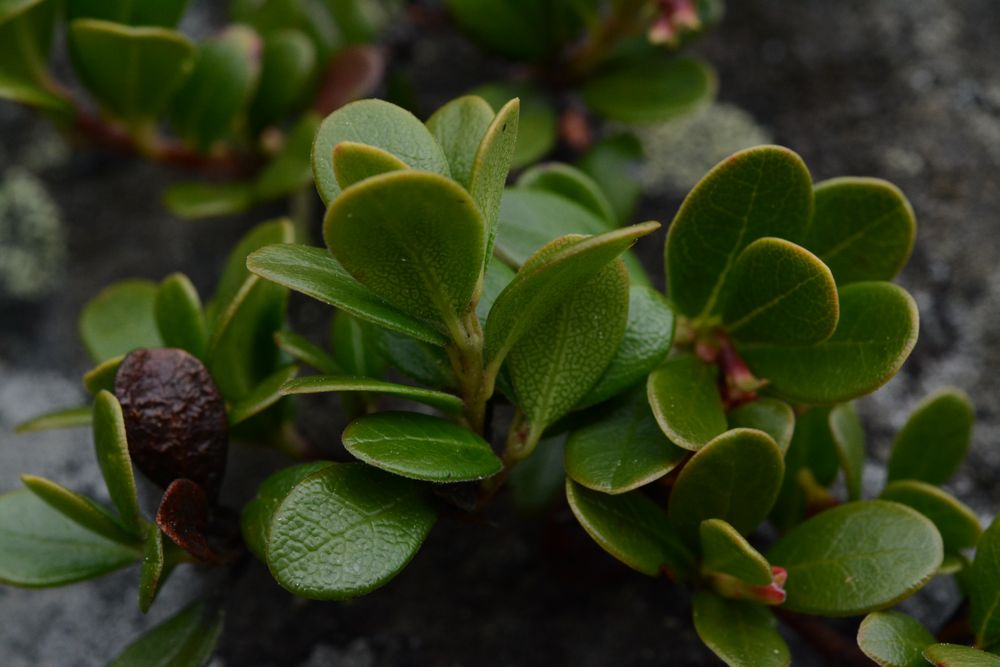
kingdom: Plantae
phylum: Tracheophyta
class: Magnoliopsida
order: Ericales
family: Ericaceae
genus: Arctostaphylos
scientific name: Arctostaphylos uva-ursi
